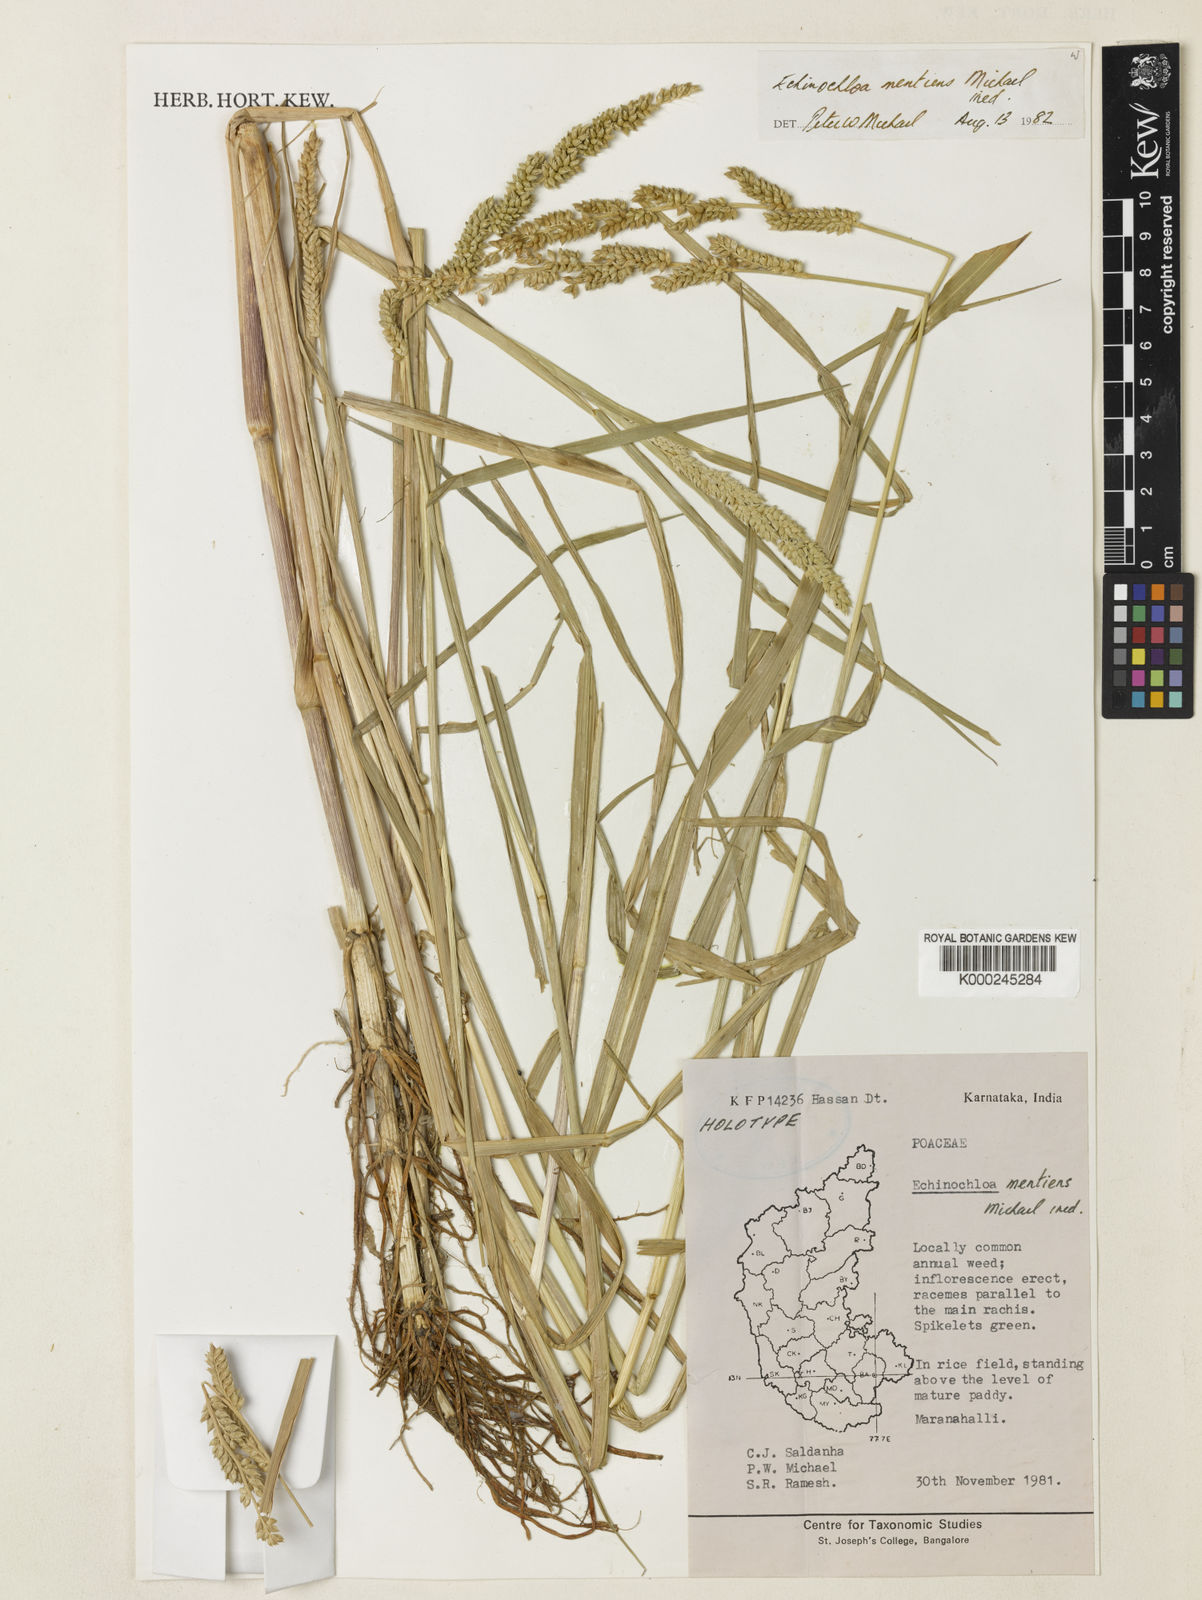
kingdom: Plantae
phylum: Tracheophyta
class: Liliopsida
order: Poales
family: Poaceae
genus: Echinochloa
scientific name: Echinochloa
